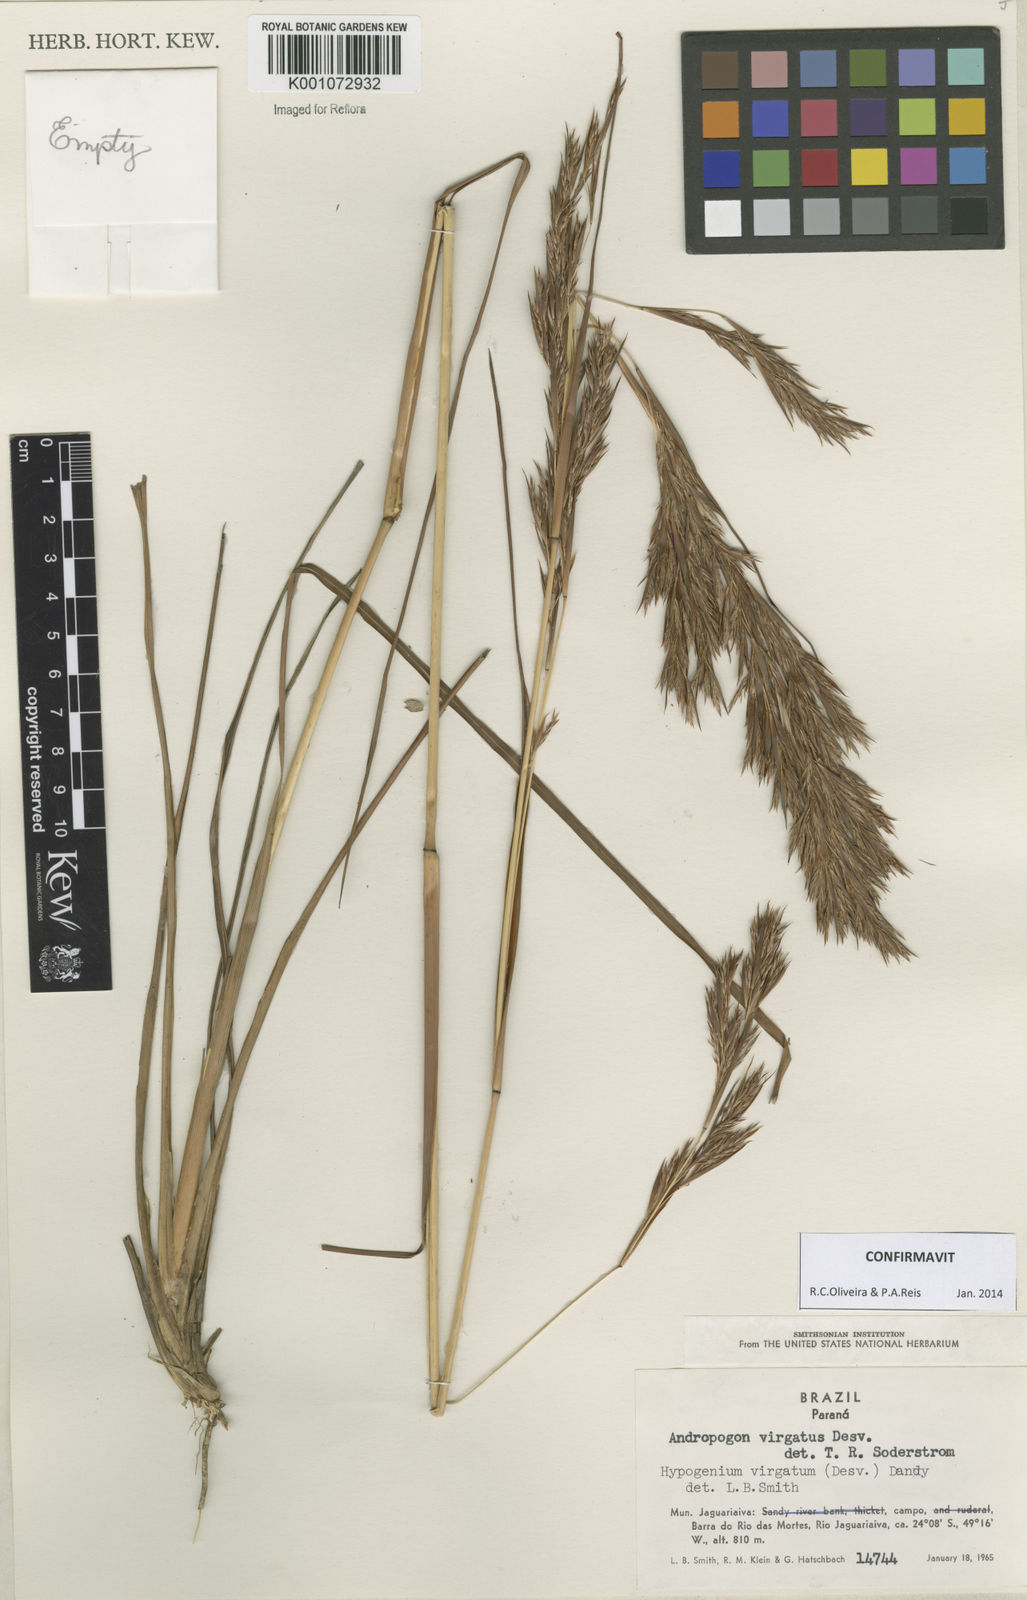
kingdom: Plantae
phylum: Tracheophyta
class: Liliopsida
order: Poales
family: Poaceae
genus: Andropogon
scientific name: Andropogon virgatus
